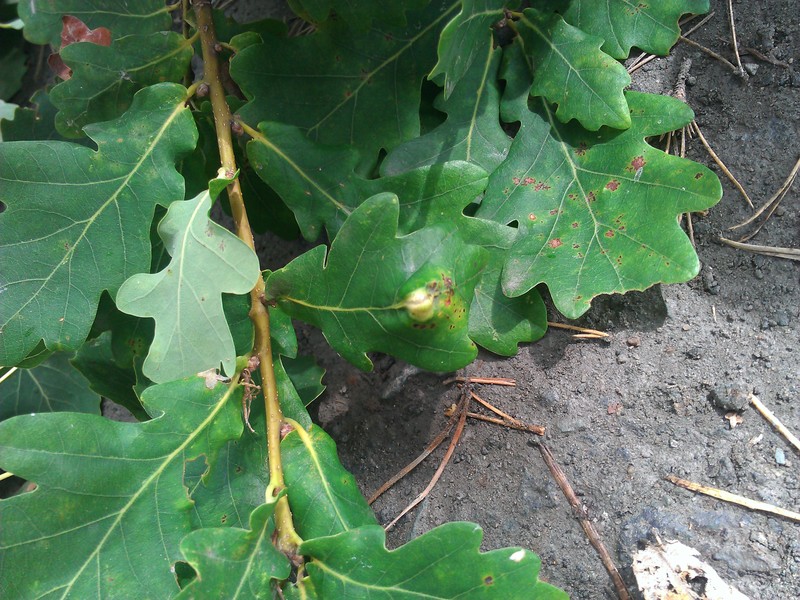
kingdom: Animalia
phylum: Arthropoda
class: Insecta
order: Hymenoptera
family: Cynipidae
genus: Andricus
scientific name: Andricus curvator
